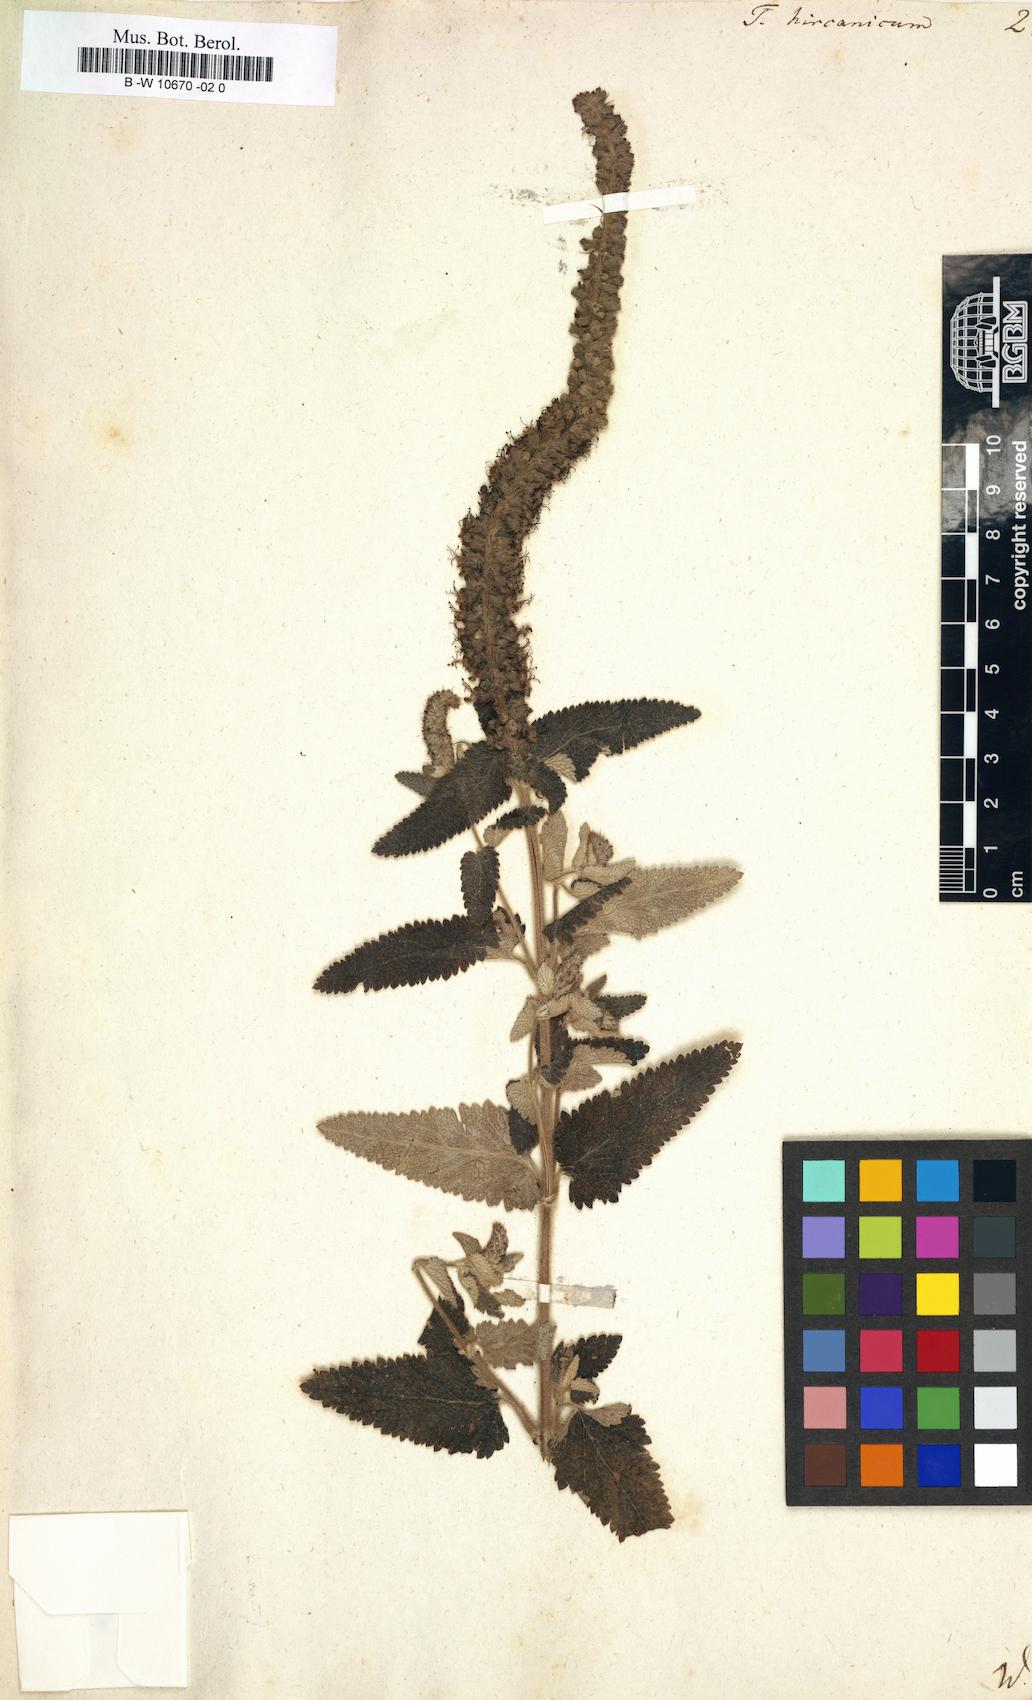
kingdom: Plantae
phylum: Tracheophyta
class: Magnoliopsida
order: Lamiales
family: Lamiaceae
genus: Teucrium
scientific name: Teucrium hircanicum
